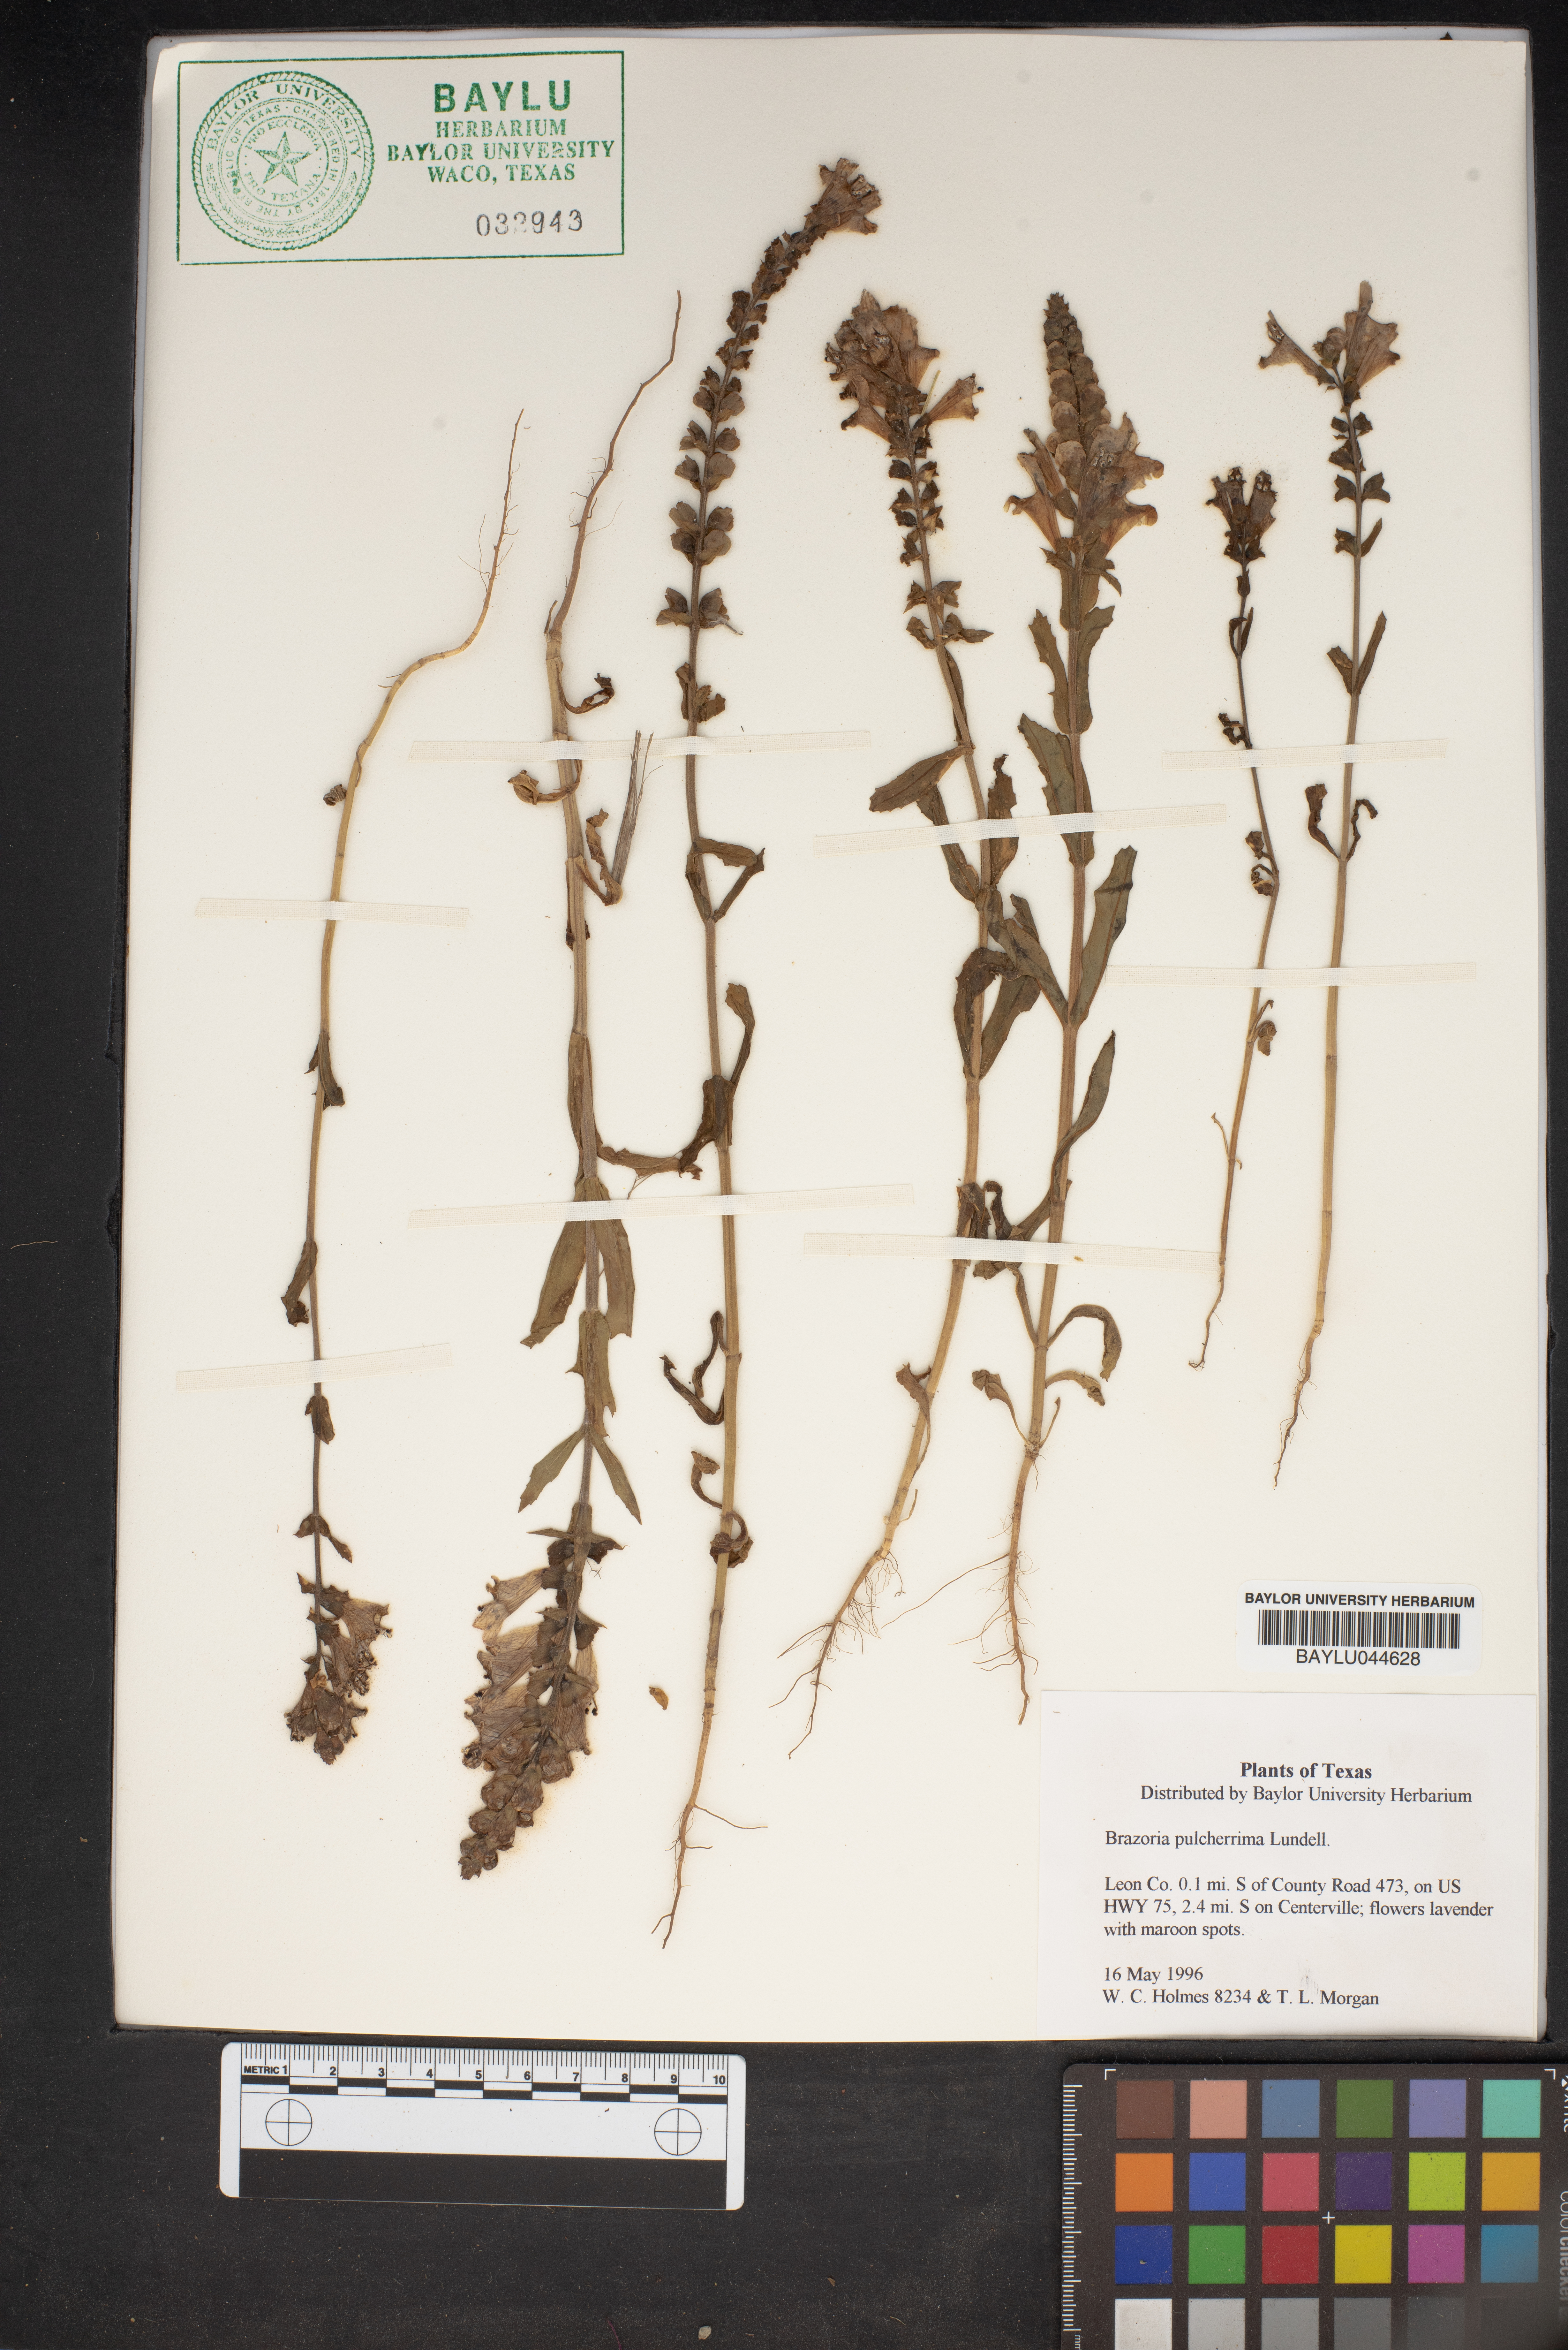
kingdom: Plantae
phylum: Tracheophyta
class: Magnoliopsida
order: Lamiales
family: Lamiaceae
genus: Brazoria
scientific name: Brazoria truncata
